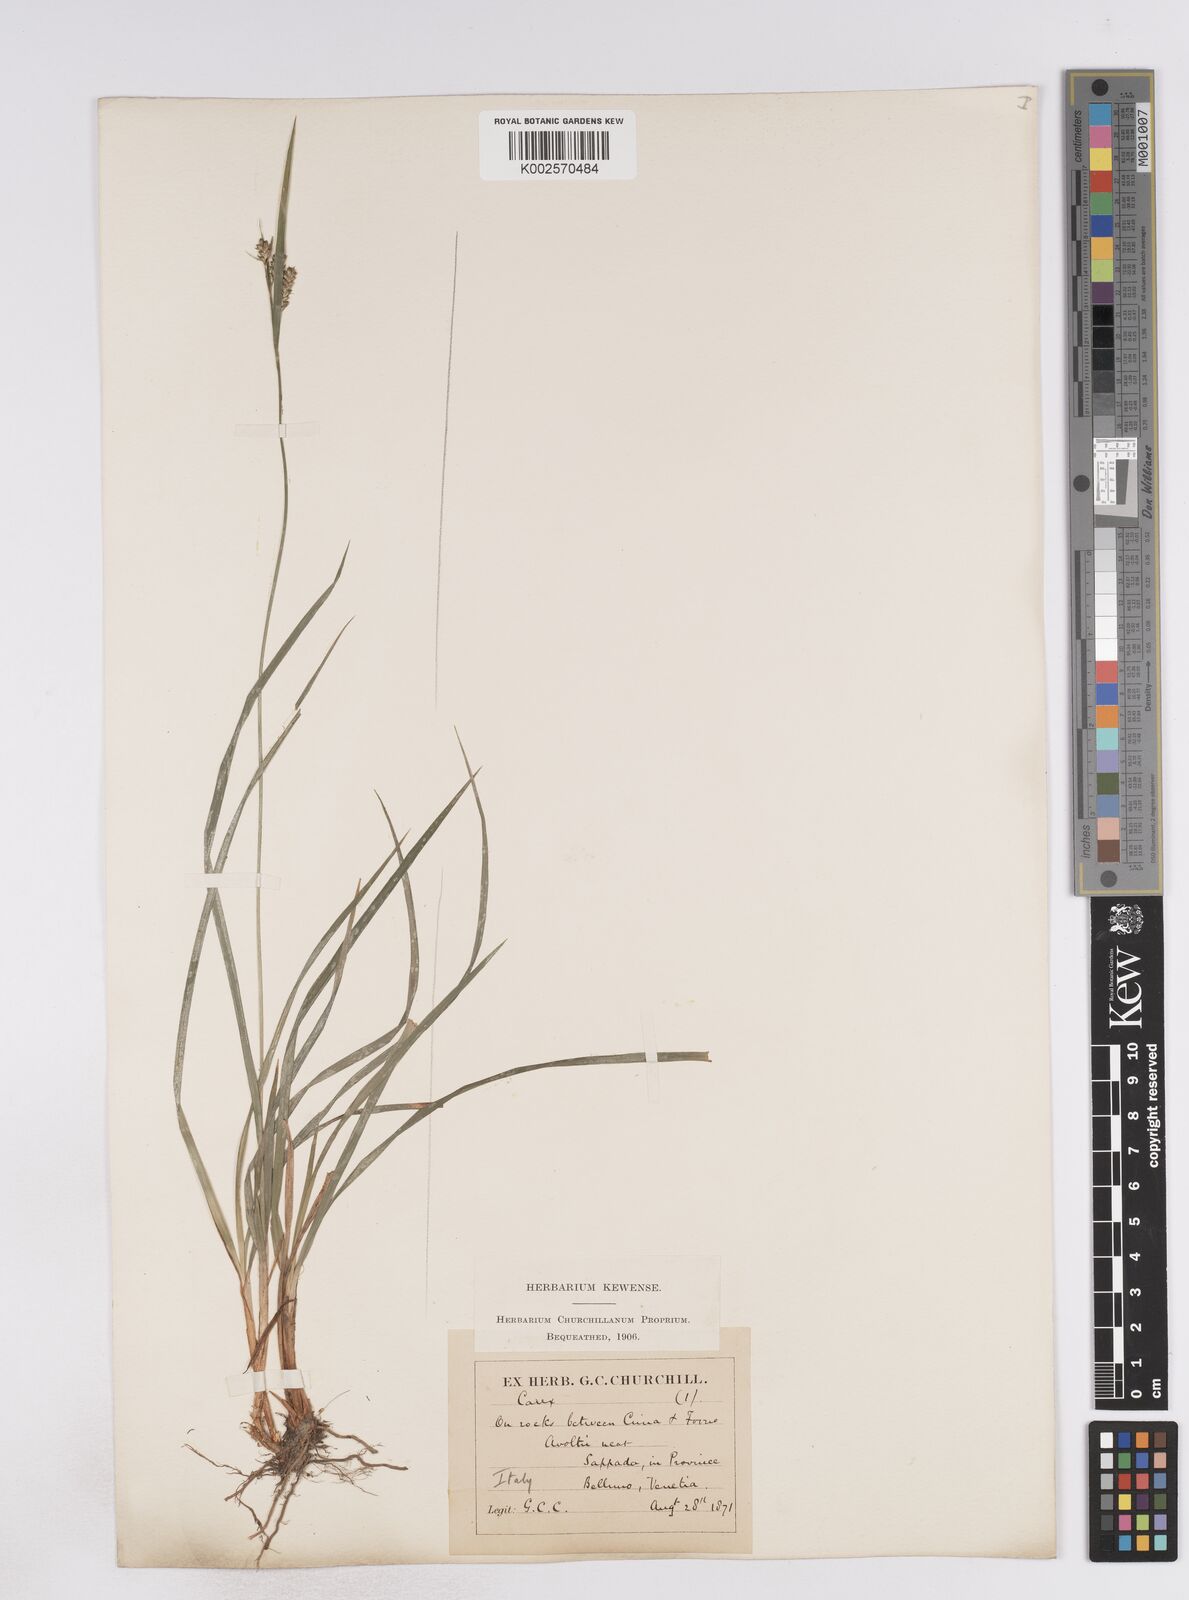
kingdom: Plantae
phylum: Tracheophyta
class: Liliopsida
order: Poales
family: Cyperaceae
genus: Carex
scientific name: Carex pallescens
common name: Pale sedge
